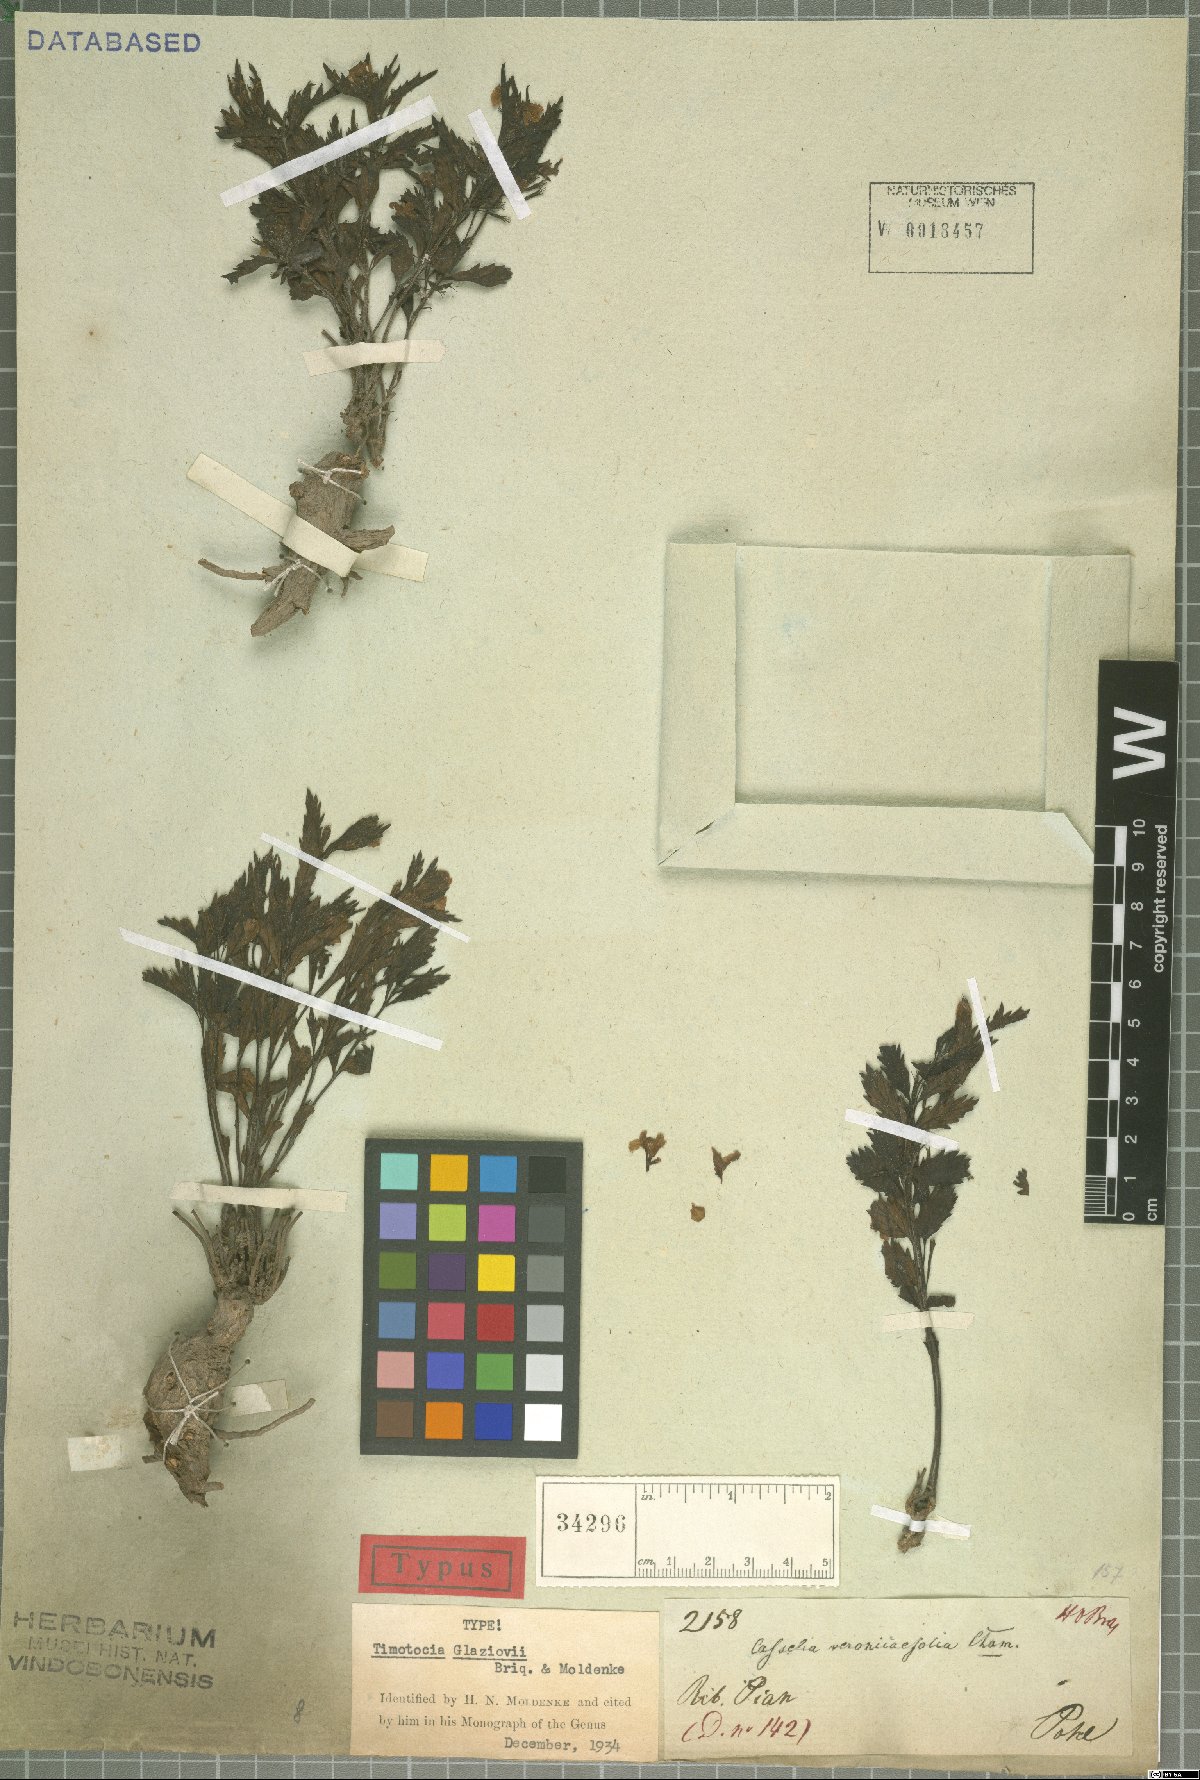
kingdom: Plantae
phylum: Tracheophyta
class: Magnoliopsida
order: Lamiales
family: Verbenaceae
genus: Casselia
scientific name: Casselia glaziovii
